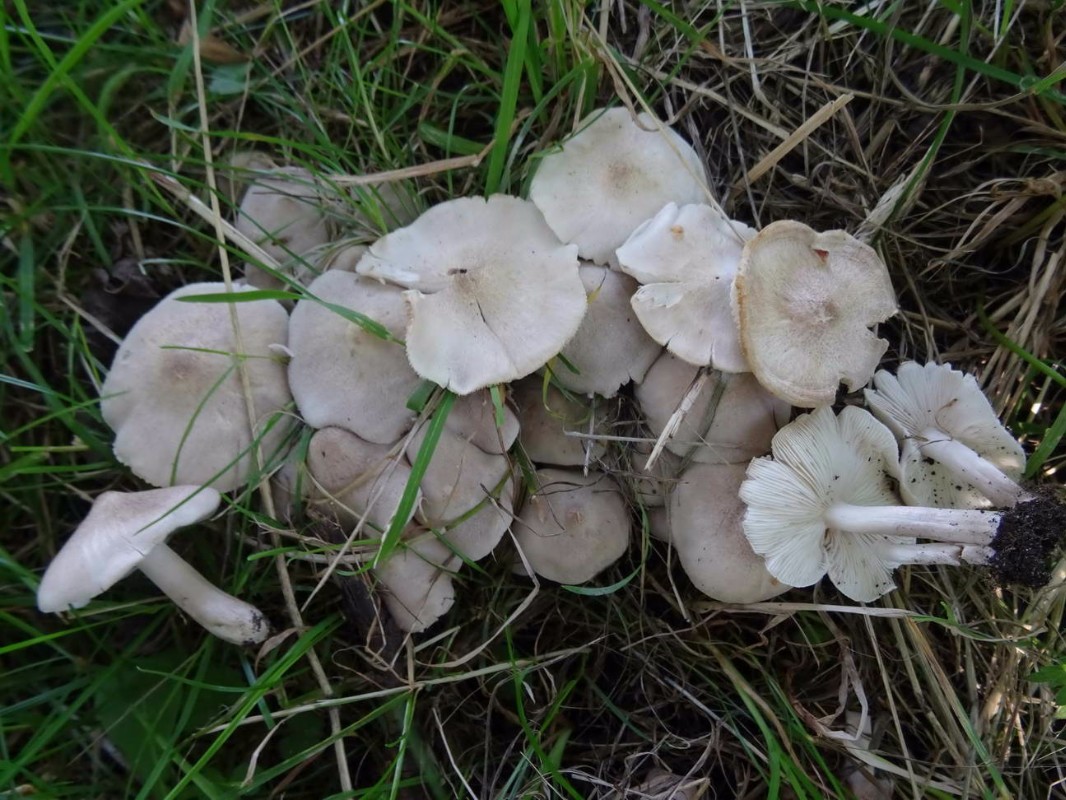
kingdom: Fungi
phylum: Basidiomycota
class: Agaricomycetes
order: Agaricales
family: Tricholomataceae
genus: Tricholoma
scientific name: Tricholoma argyraceum
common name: spids ridderhat
